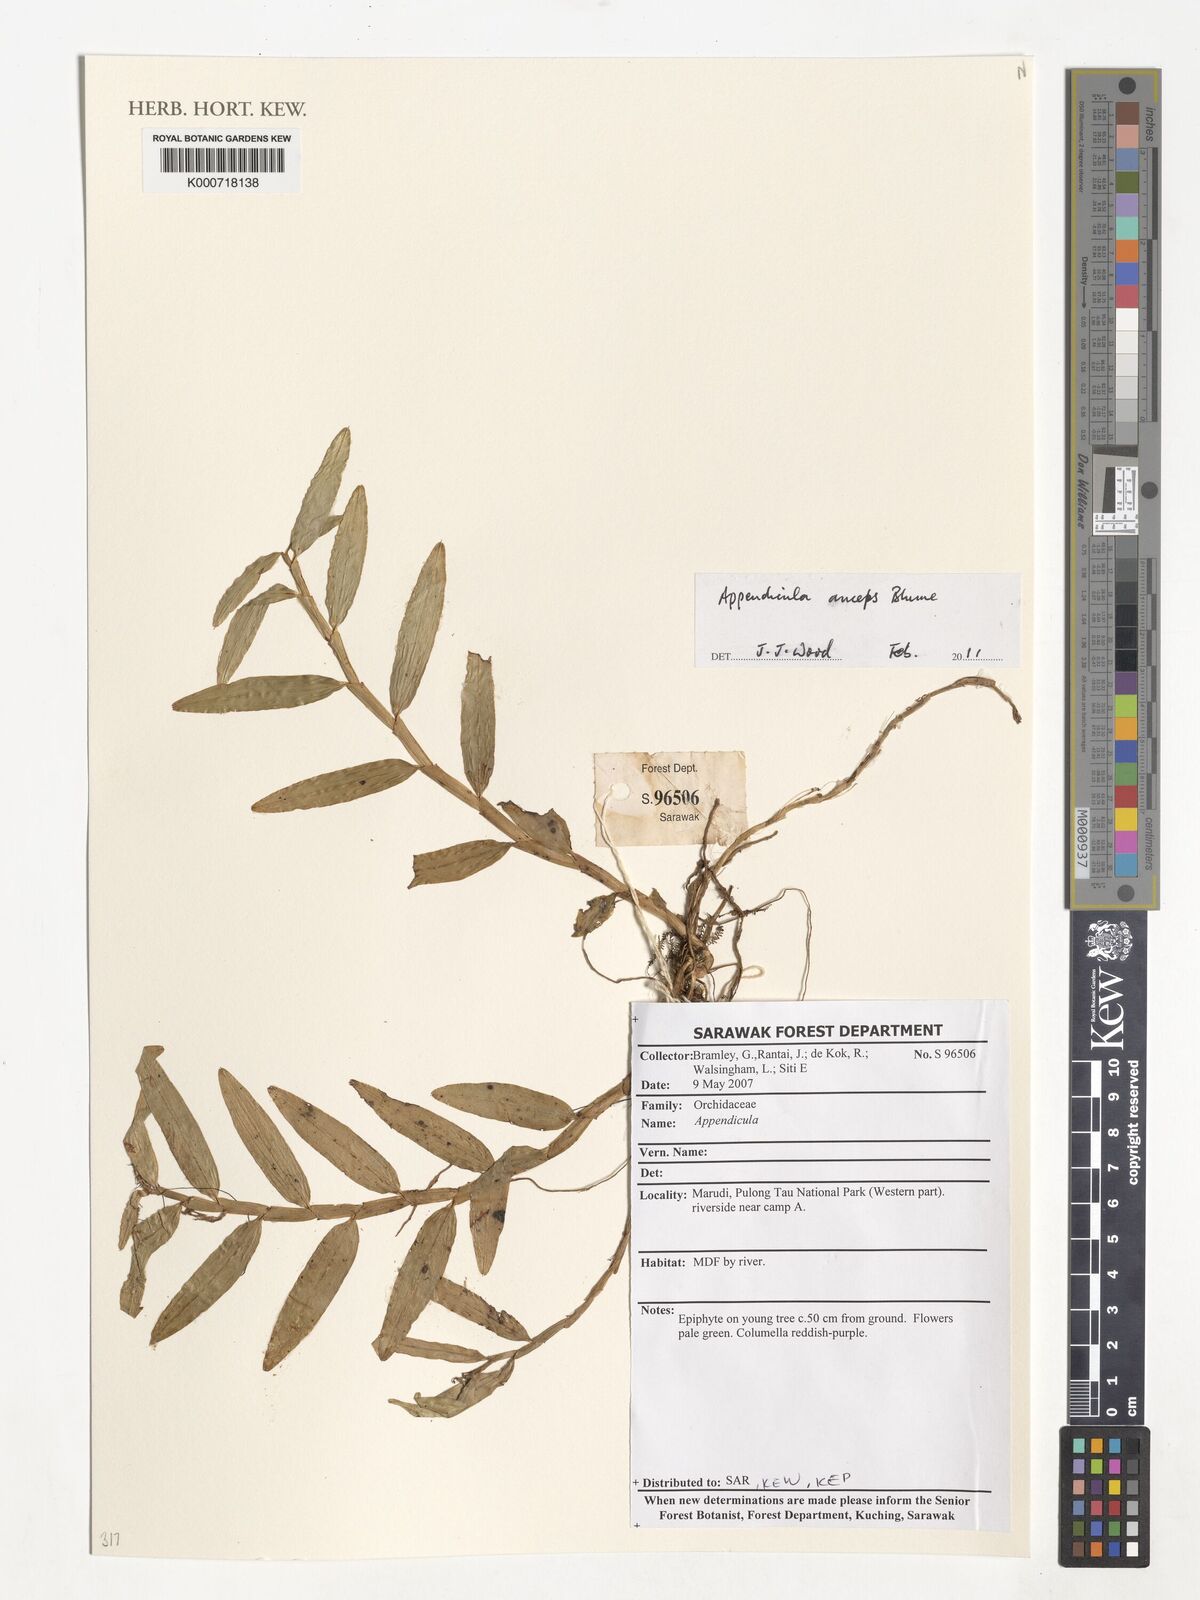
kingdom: Plantae
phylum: Tracheophyta
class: Liliopsida
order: Asparagales
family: Orchidaceae
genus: Appendicula
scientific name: Appendicula anceps
